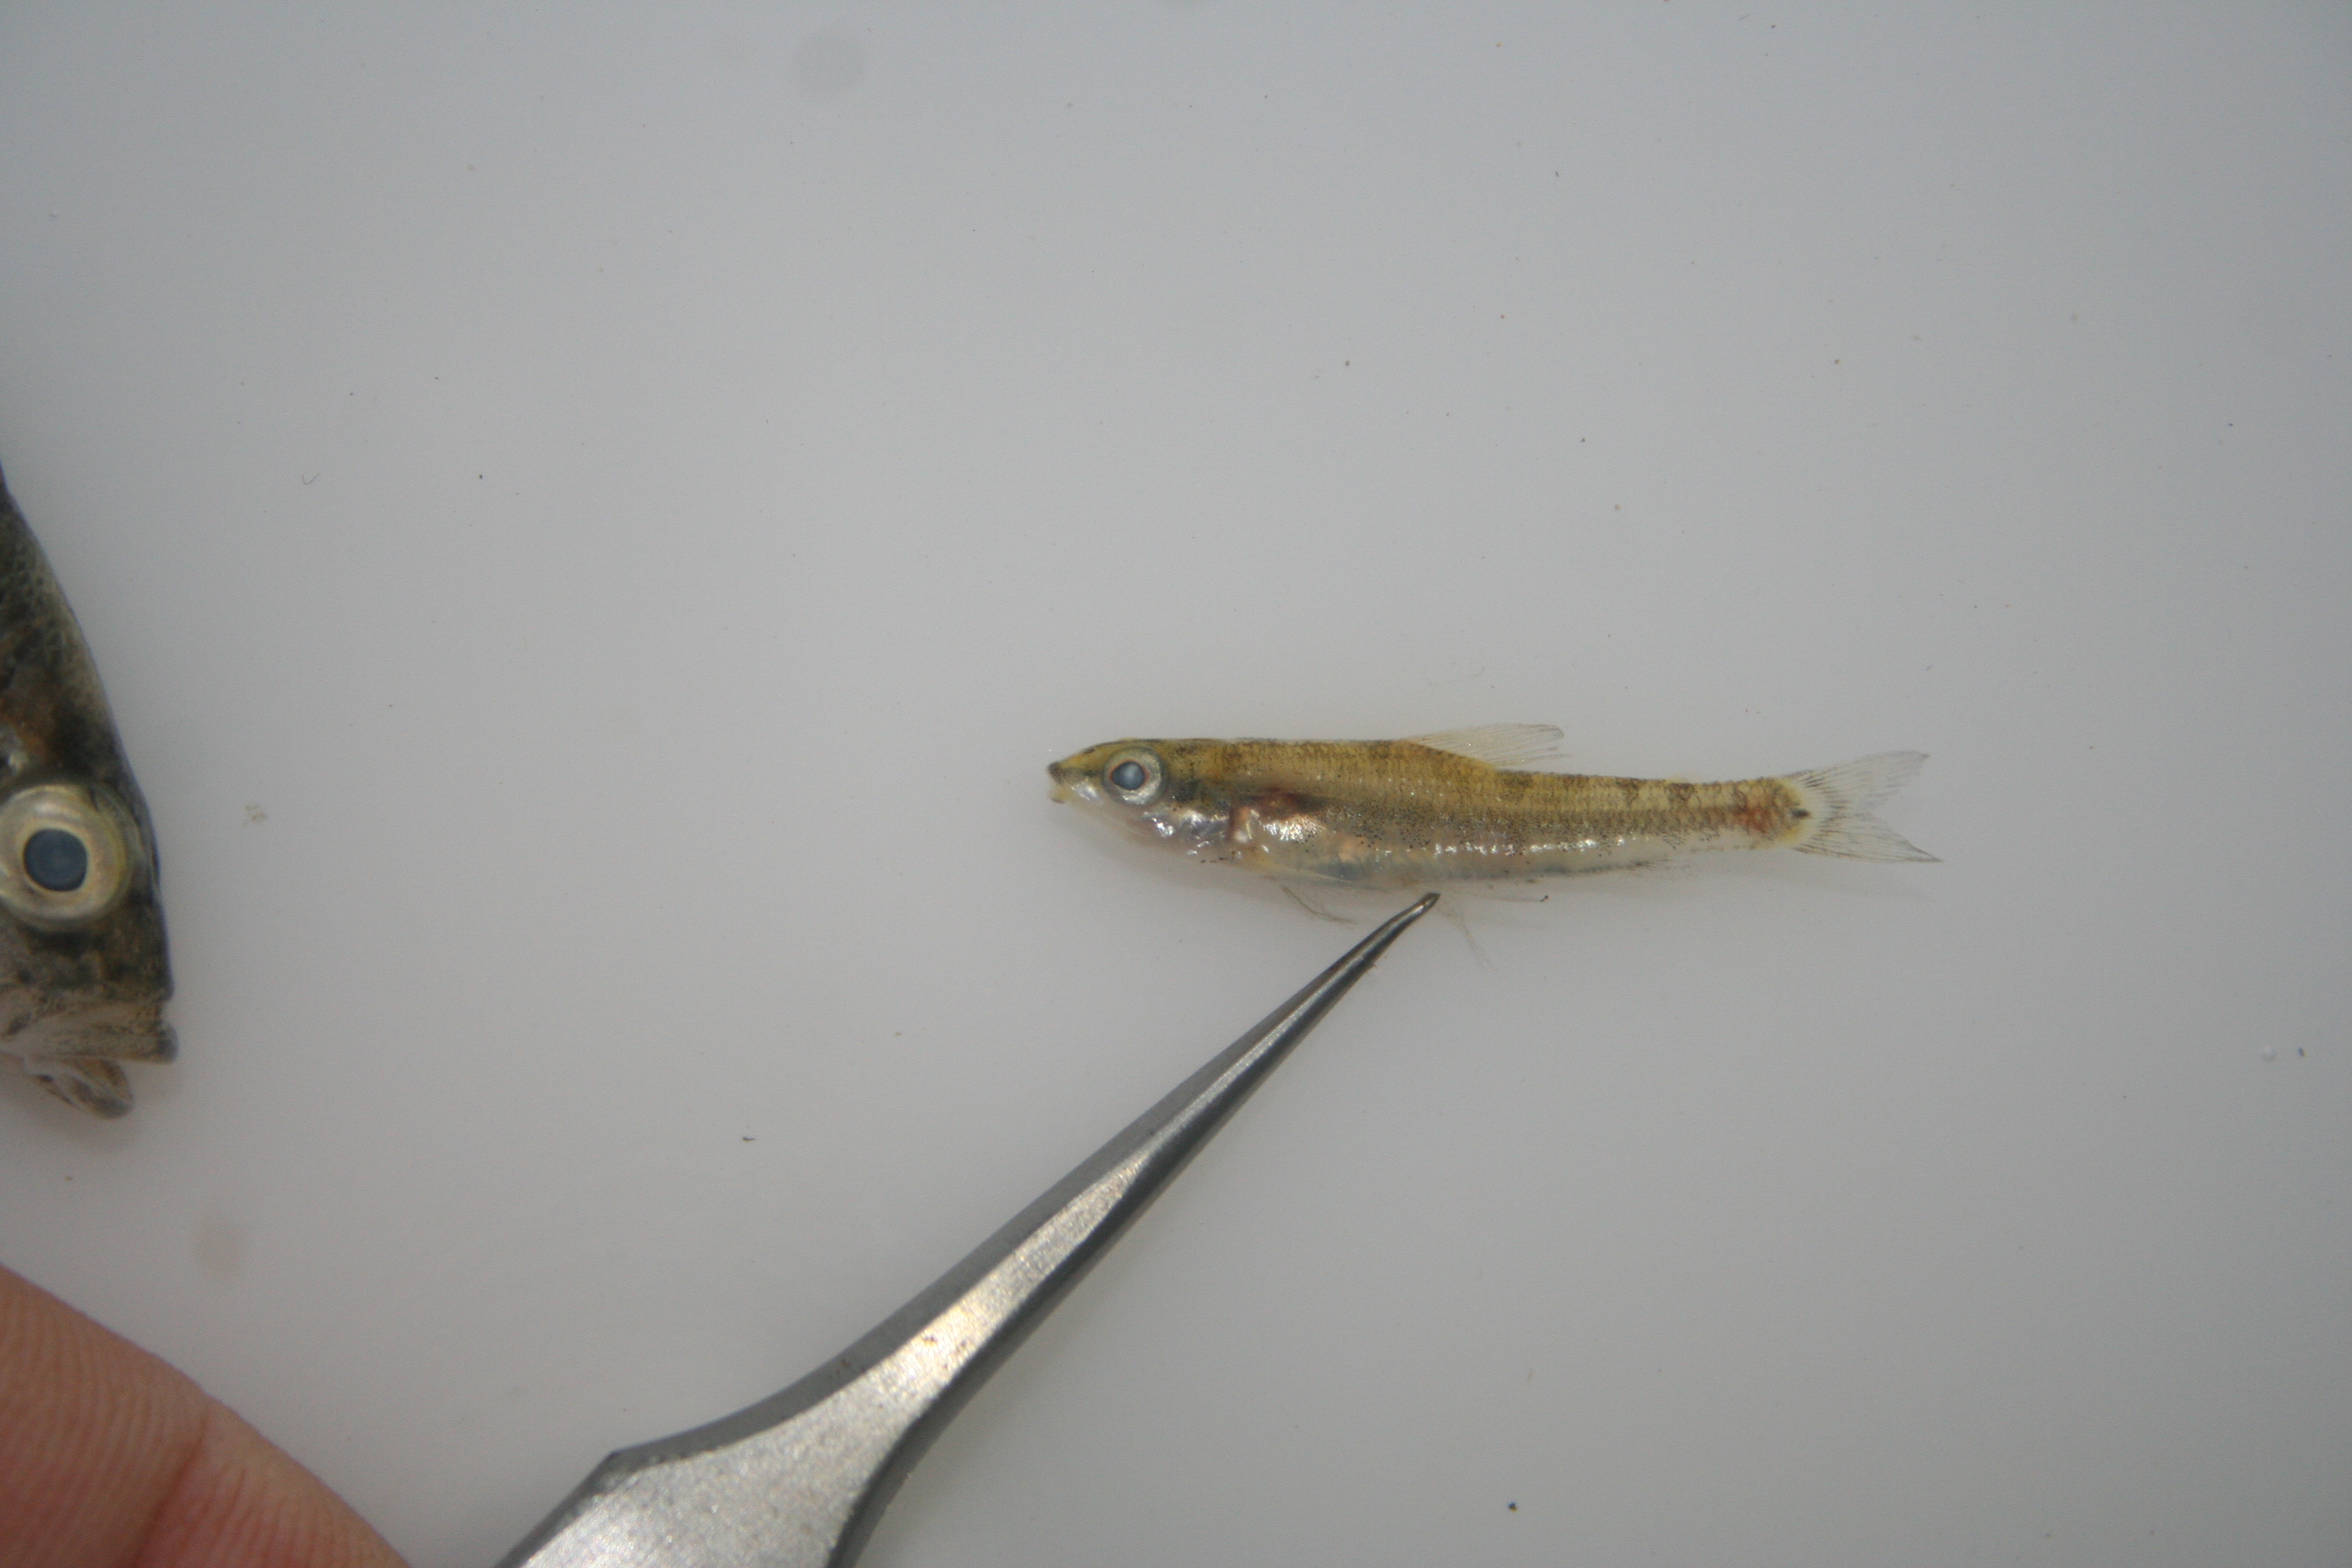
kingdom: Animalia
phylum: Chordata
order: Characiformes
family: Distichodontidae
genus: Nannocharax
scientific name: Nannocharax lineostriatus
